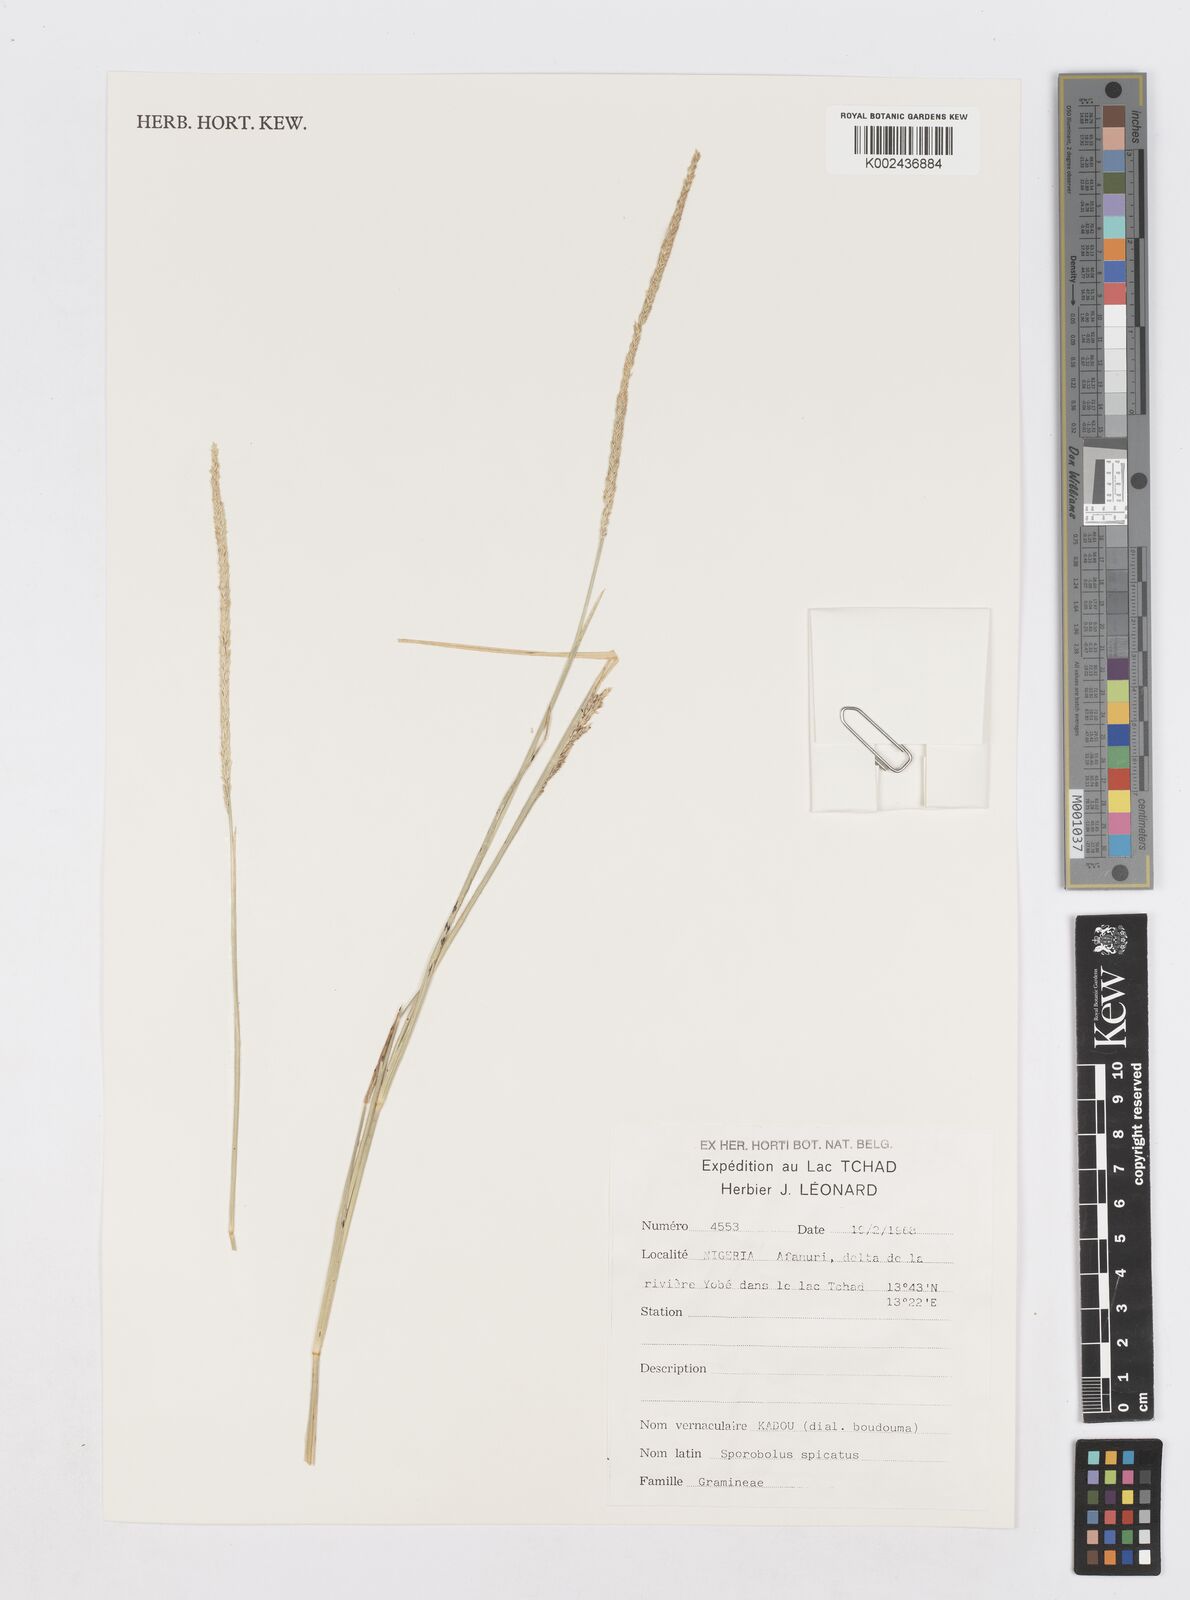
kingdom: Plantae
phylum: Tracheophyta
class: Liliopsida
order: Poales
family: Poaceae
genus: Sporobolus
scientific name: Sporobolus spicatus
